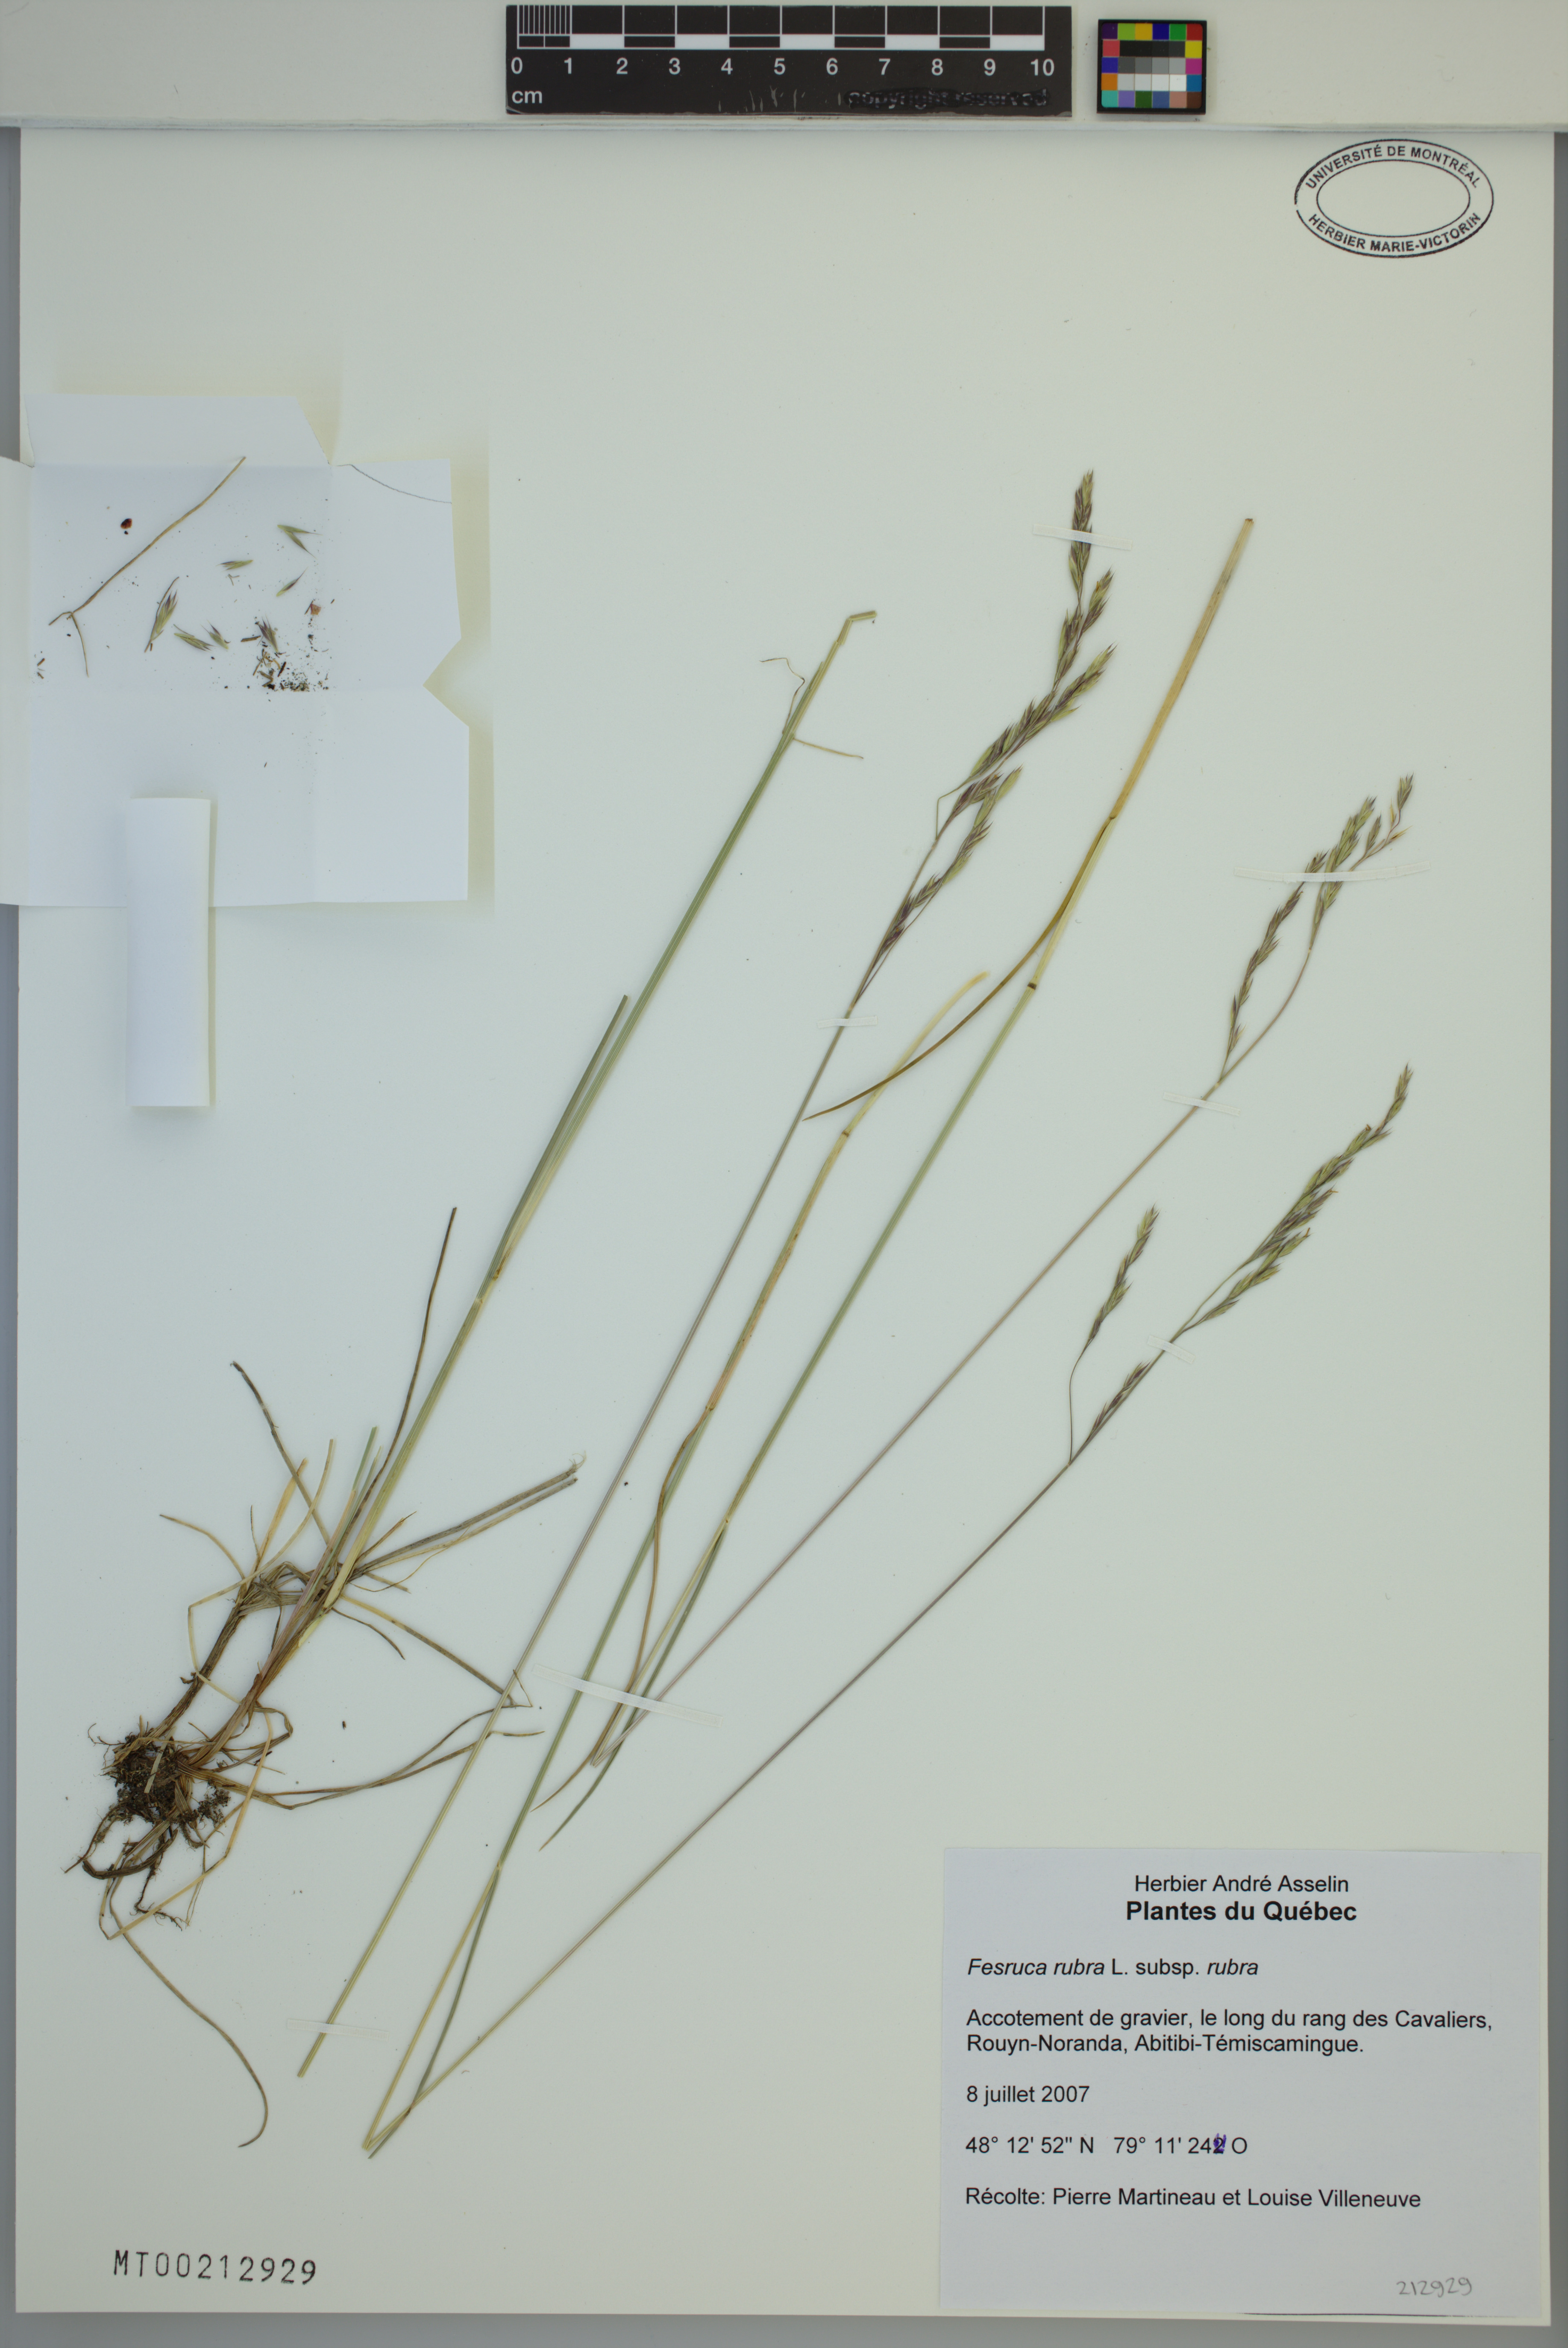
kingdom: Plantae
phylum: Tracheophyta
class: Liliopsida
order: Poales
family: Poaceae
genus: Festuca
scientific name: Festuca rubra
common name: Red fescue
